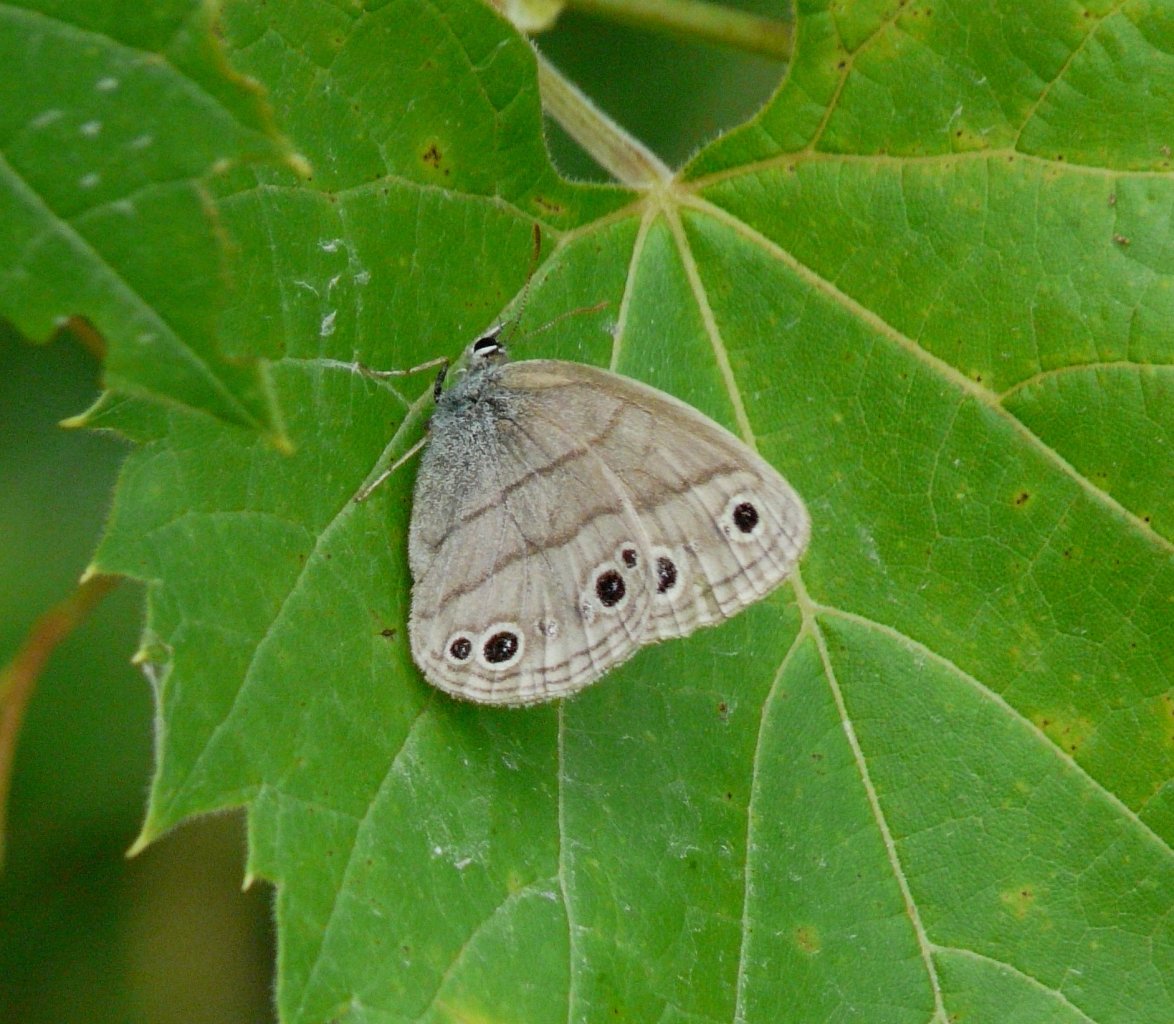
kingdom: Animalia
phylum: Arthropoda
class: Insecta
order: Lepidoptera
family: Nymphalidae
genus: Euptychia
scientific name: Euptychia cymela
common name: Little Wood Satyr
